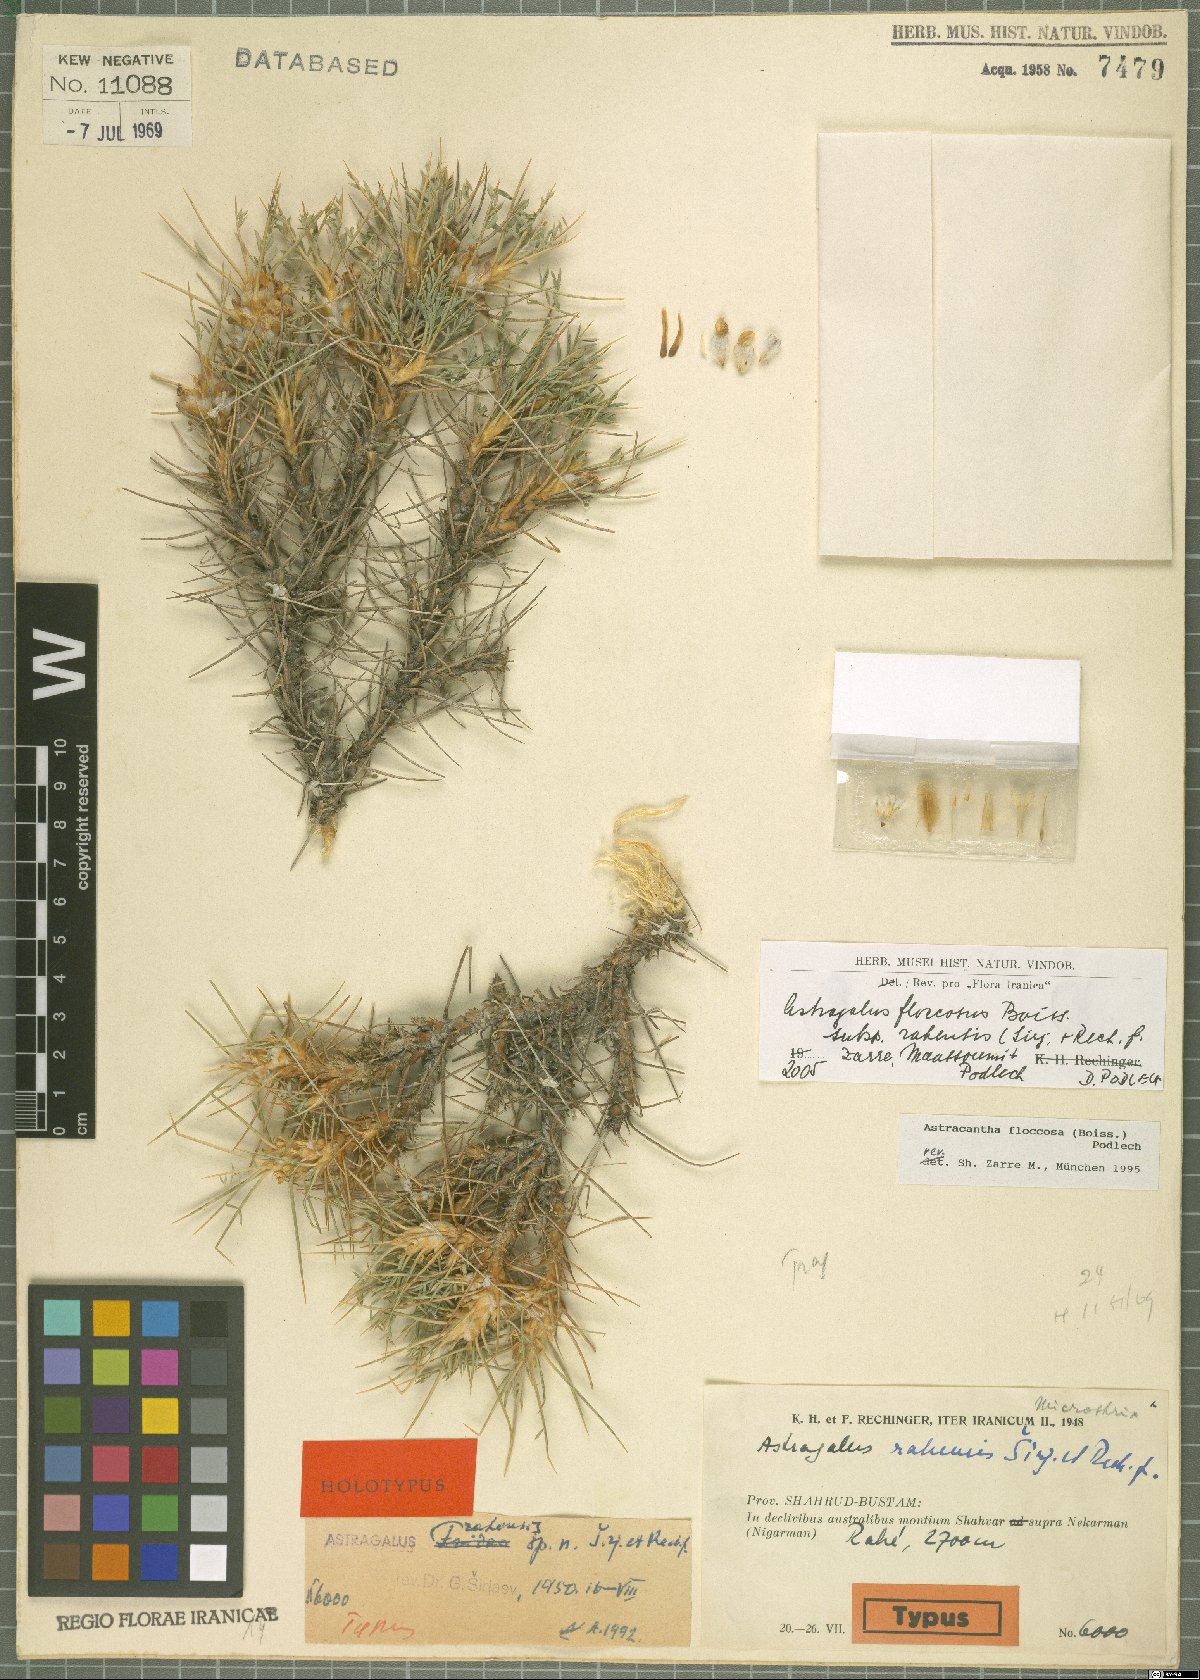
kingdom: Plantae
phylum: Tracheophyta
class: Magnoliopsida
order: Fabales
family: Fabaceae
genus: Astragalus
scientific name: Astragalus floccosus
